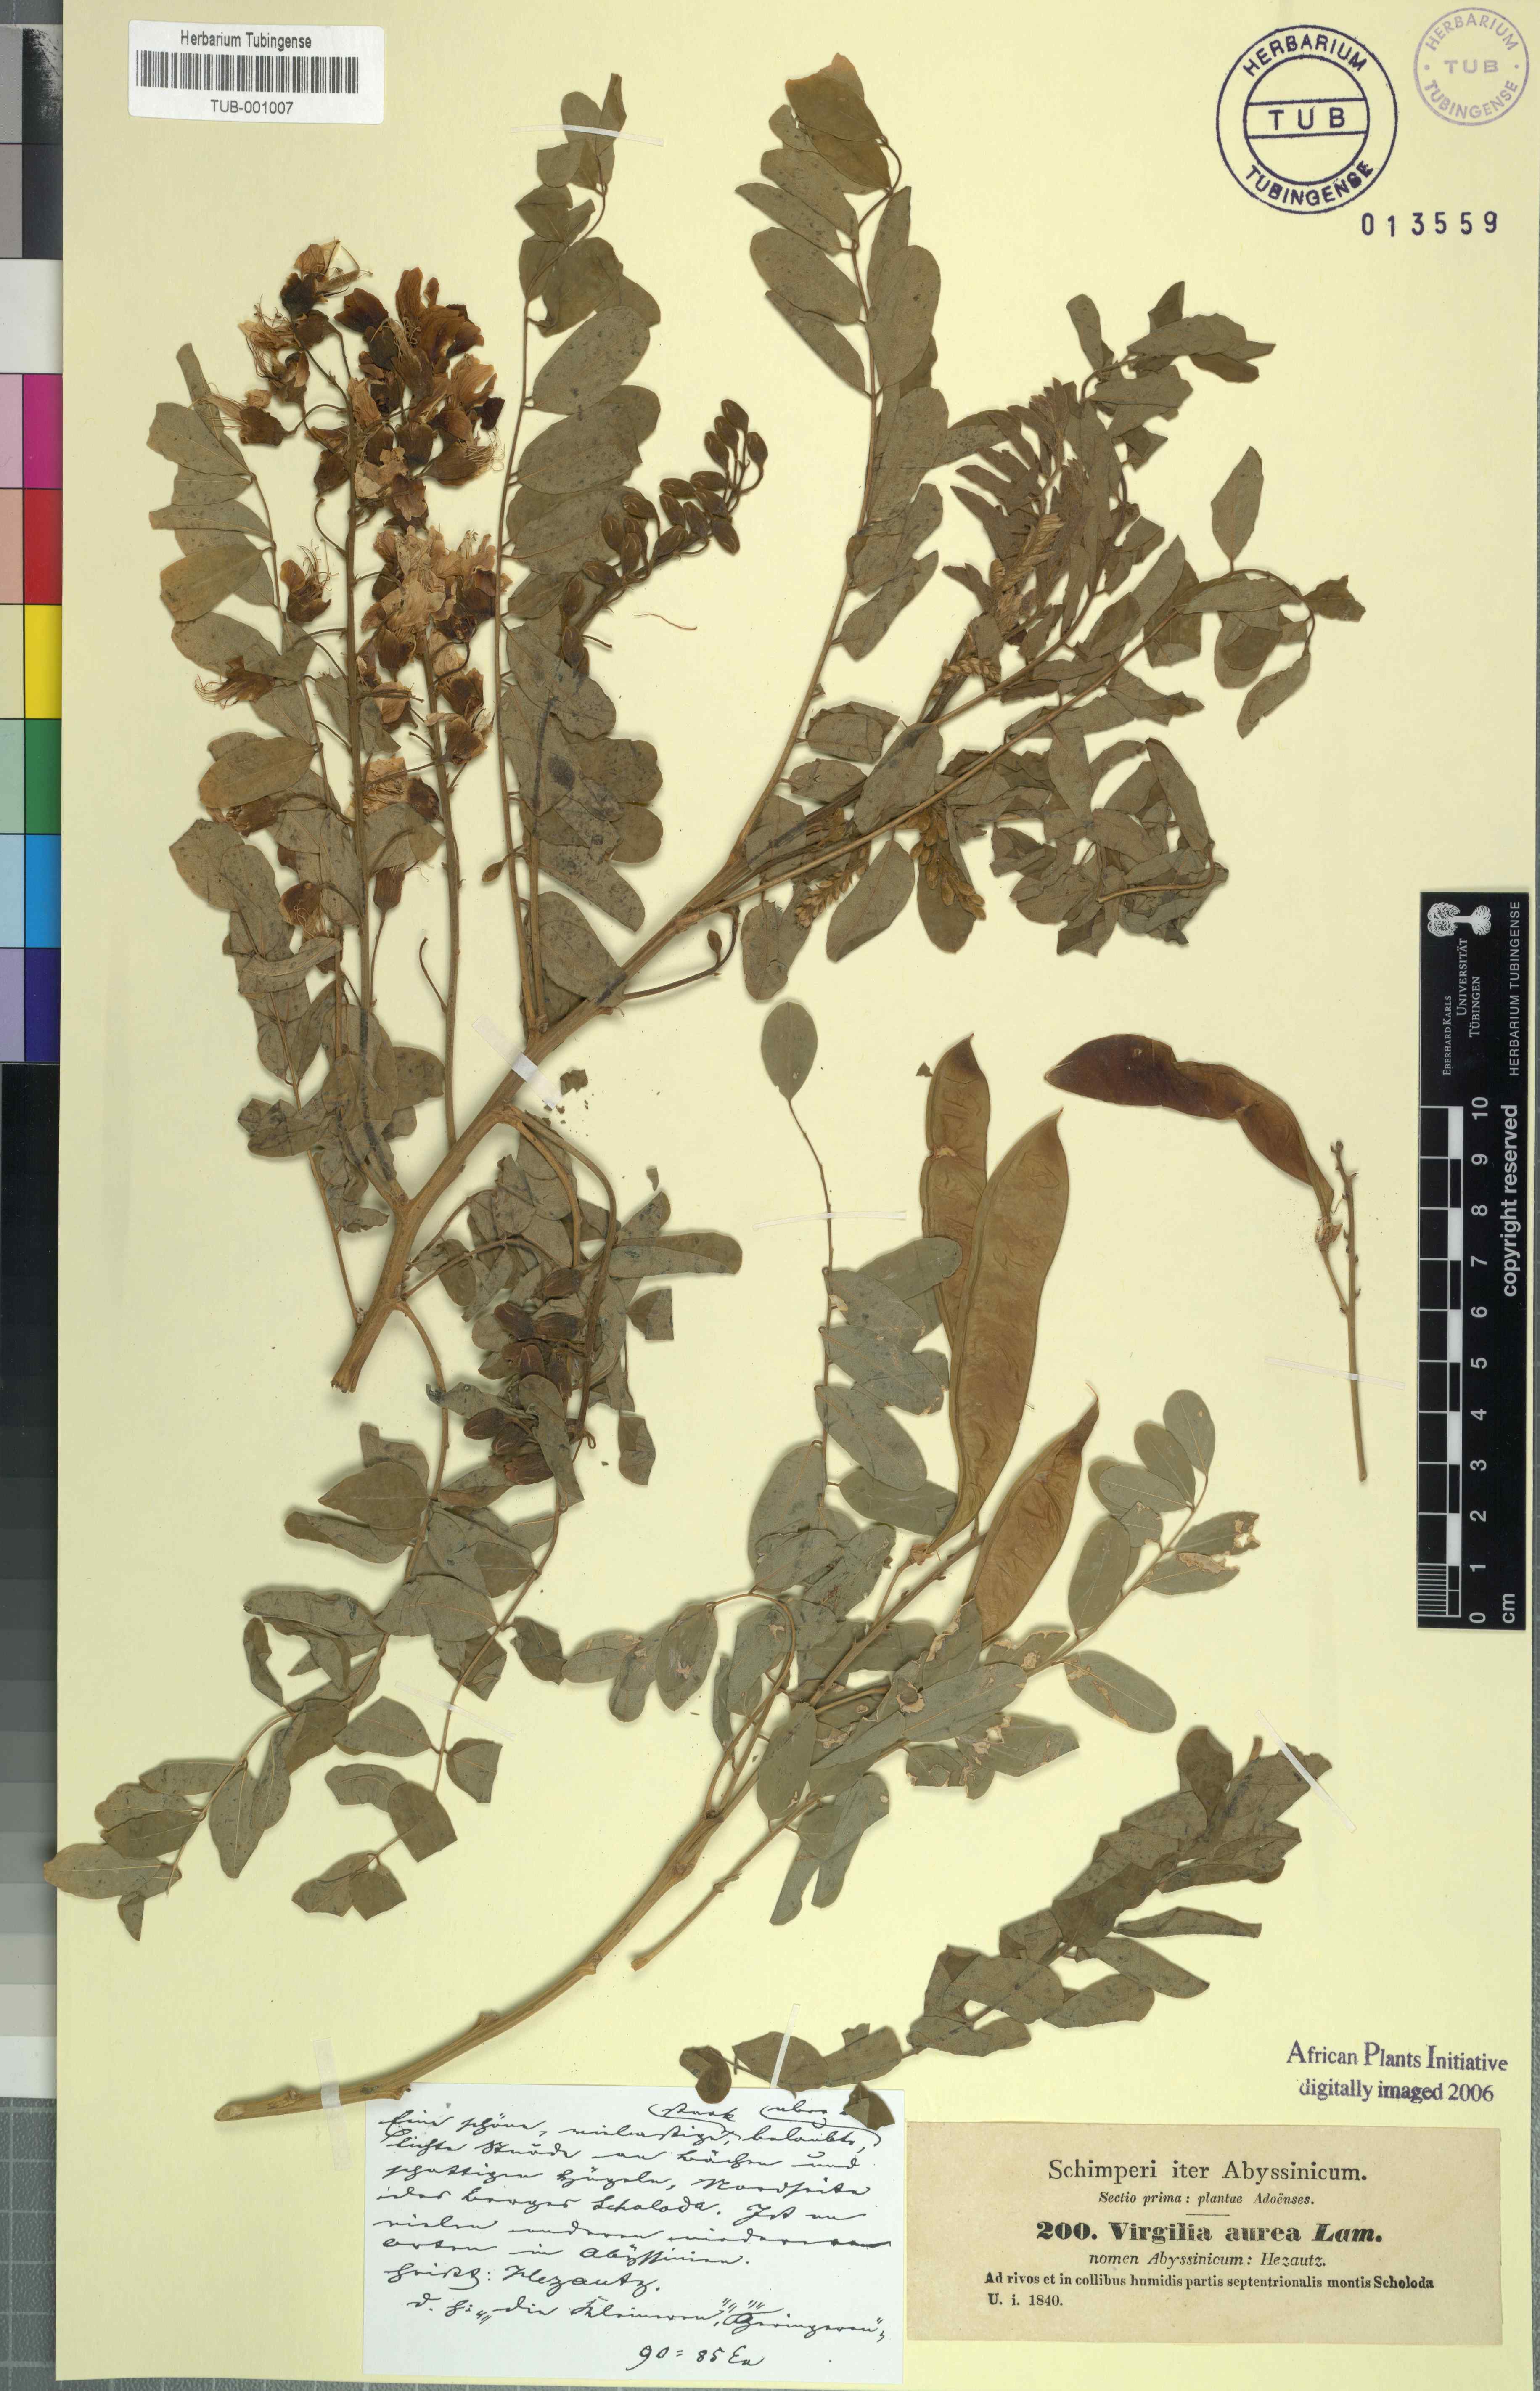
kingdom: Plantae
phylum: Tracheophyta
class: Magnoliopsida
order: Fabales
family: Fabaceae
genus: Calpurnia
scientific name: Calpurnia aurea
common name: Wild laburnum
